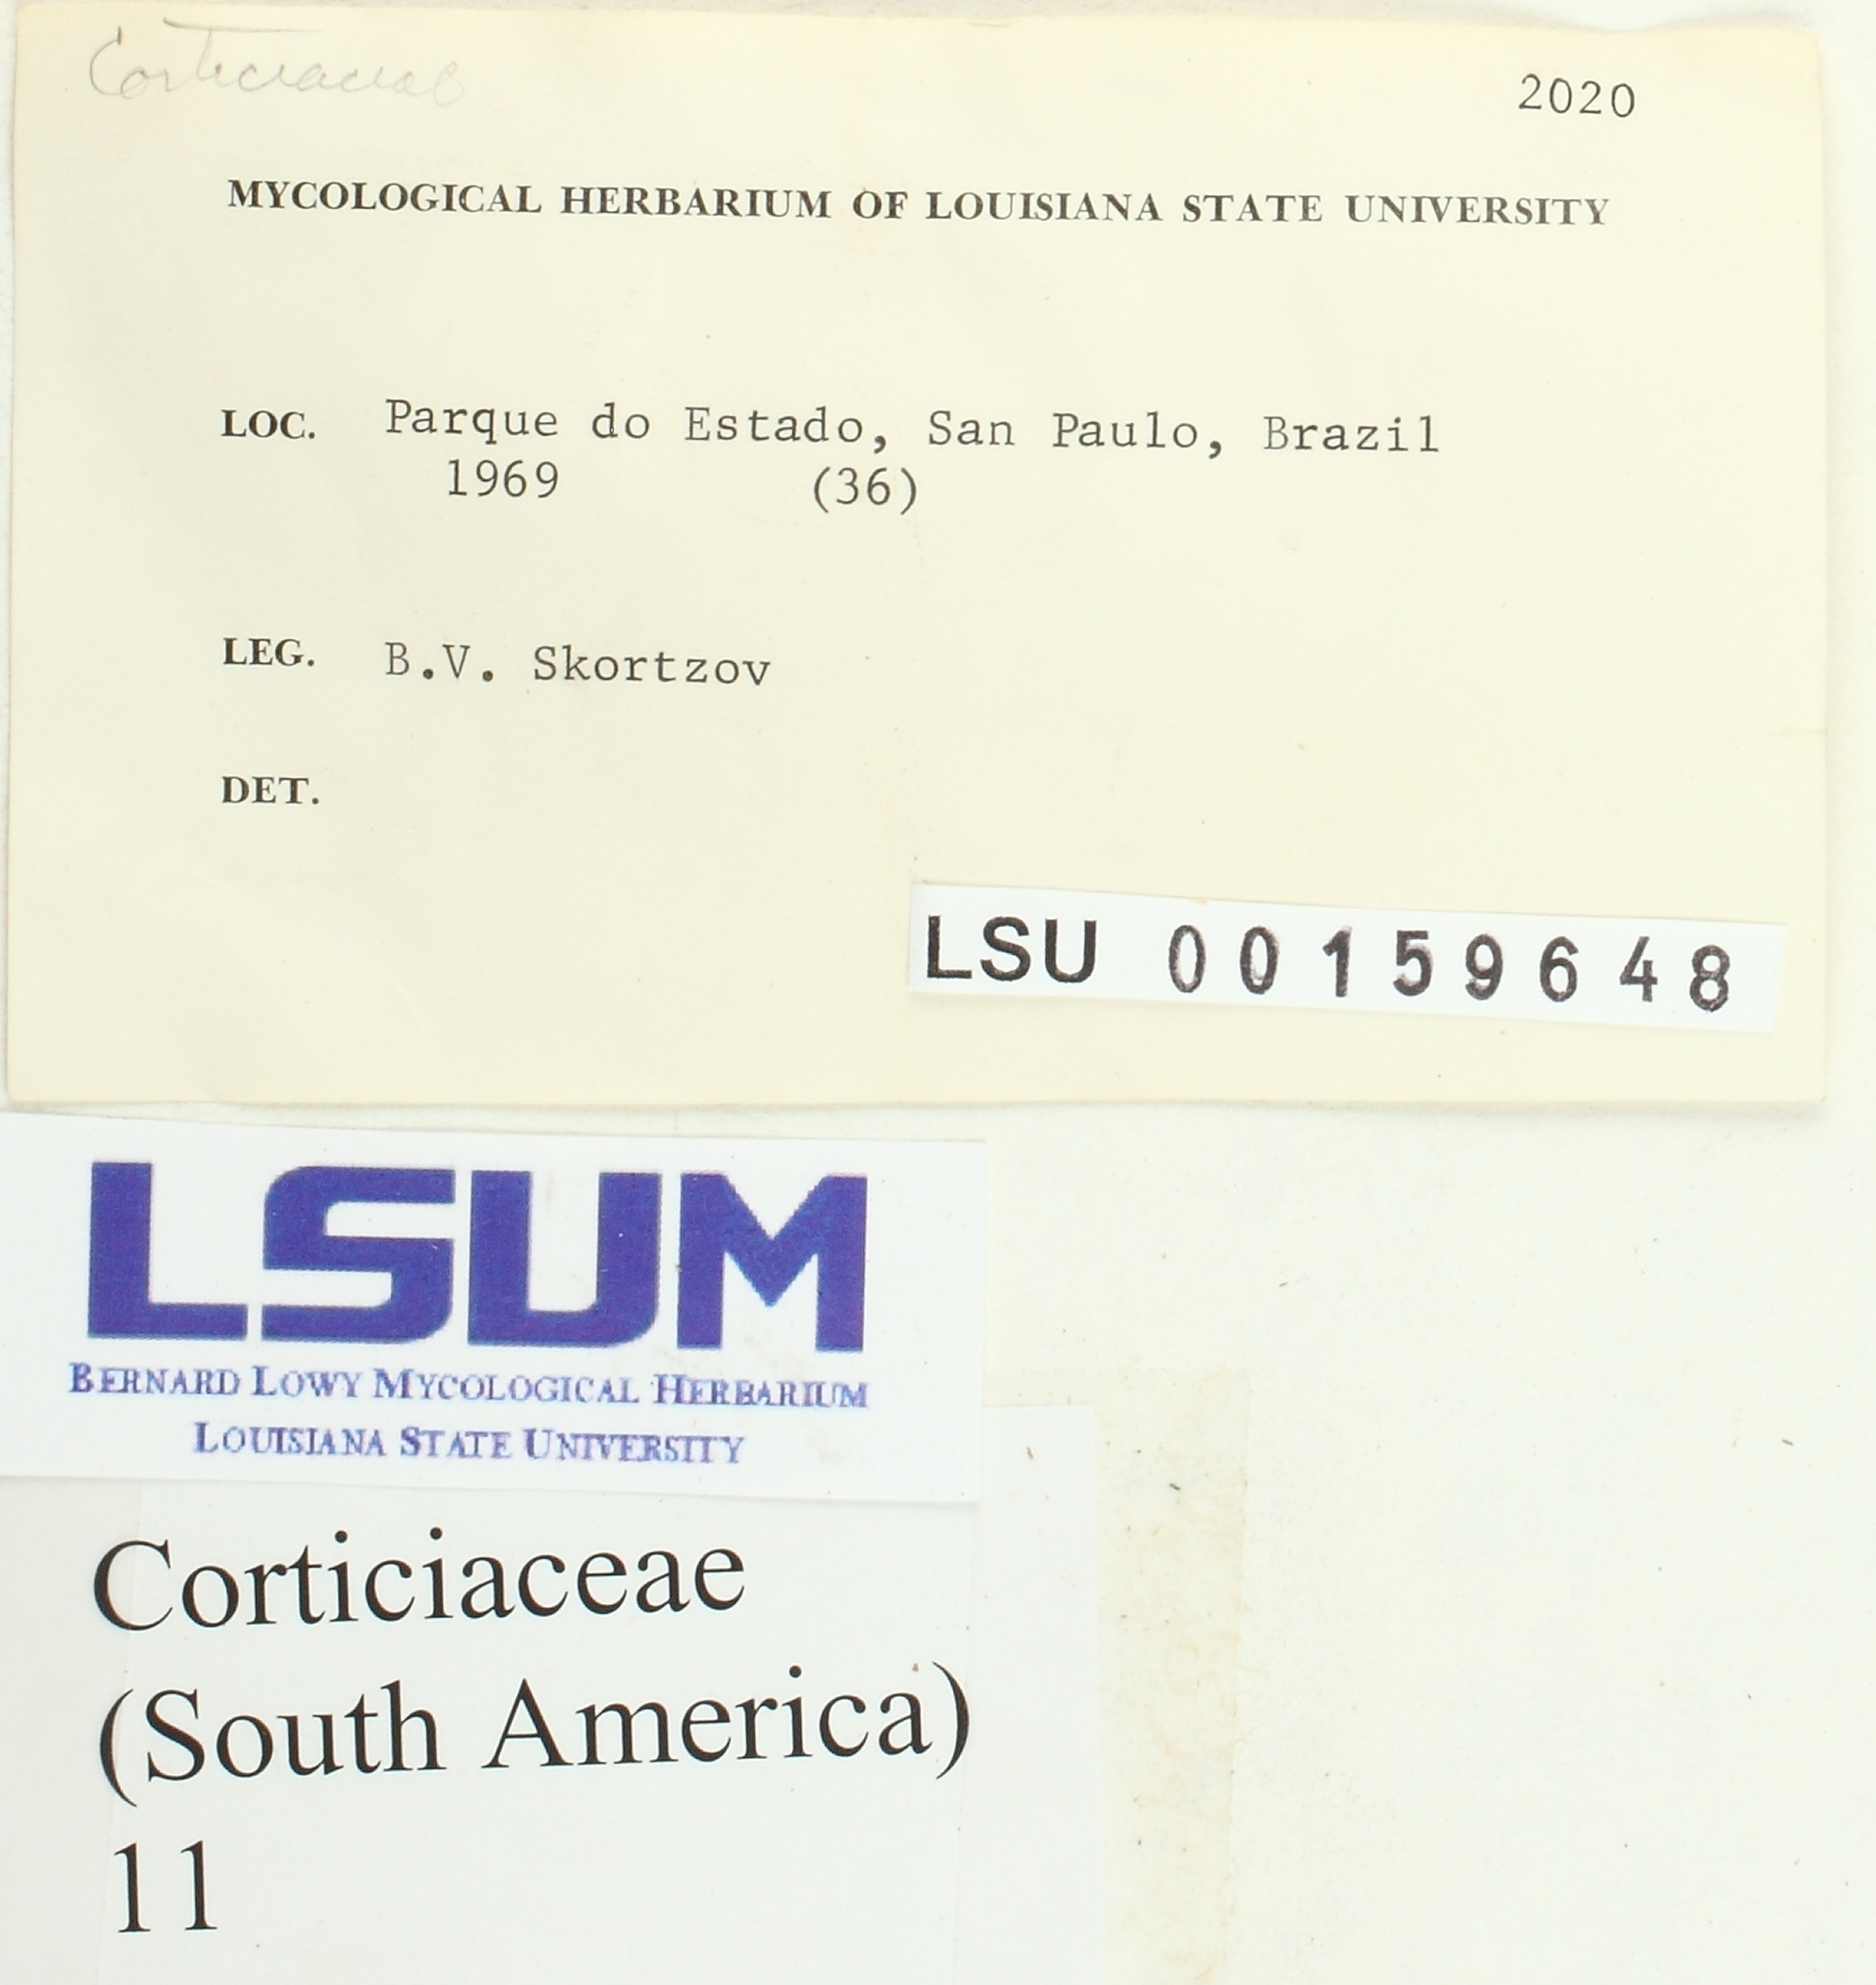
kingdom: Fungi
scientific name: Fungi
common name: Fungi
